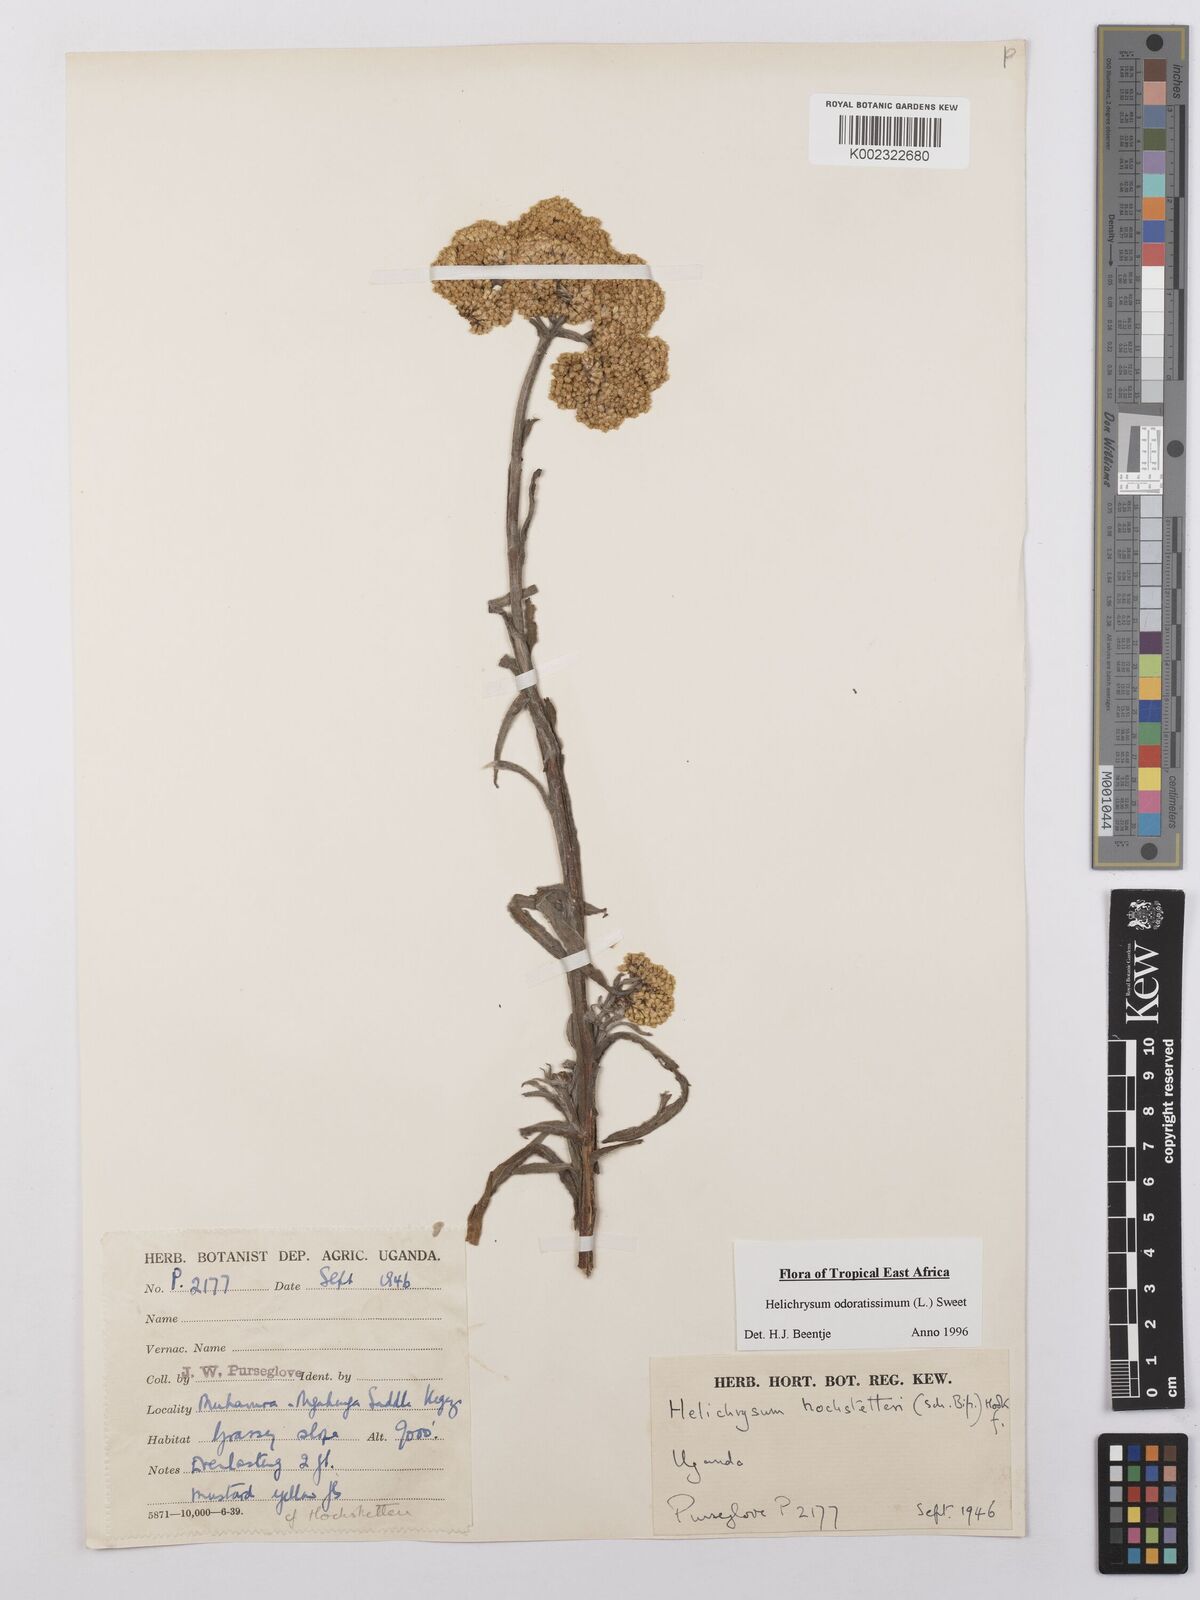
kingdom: Plantae
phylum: Tracheophyta
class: Magnoliopsida
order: Asterales
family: Asteraceae
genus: Helichrysum
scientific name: Helichrysum odoratissimum
